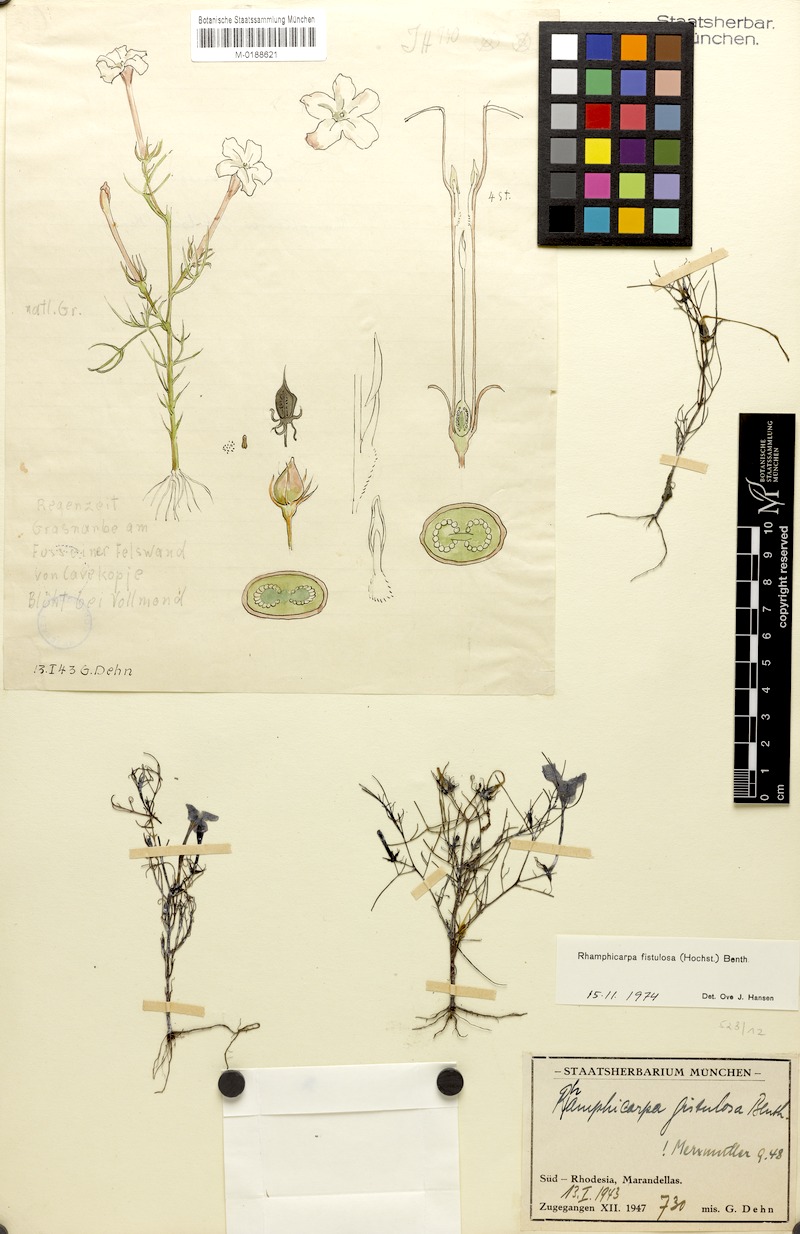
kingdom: Plantae
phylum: Tracheophyta
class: Magnoliopsida
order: Lamiales
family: Orobanchaceae
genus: Rhamphicarpa
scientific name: Rhamphicarpa fistulosa
